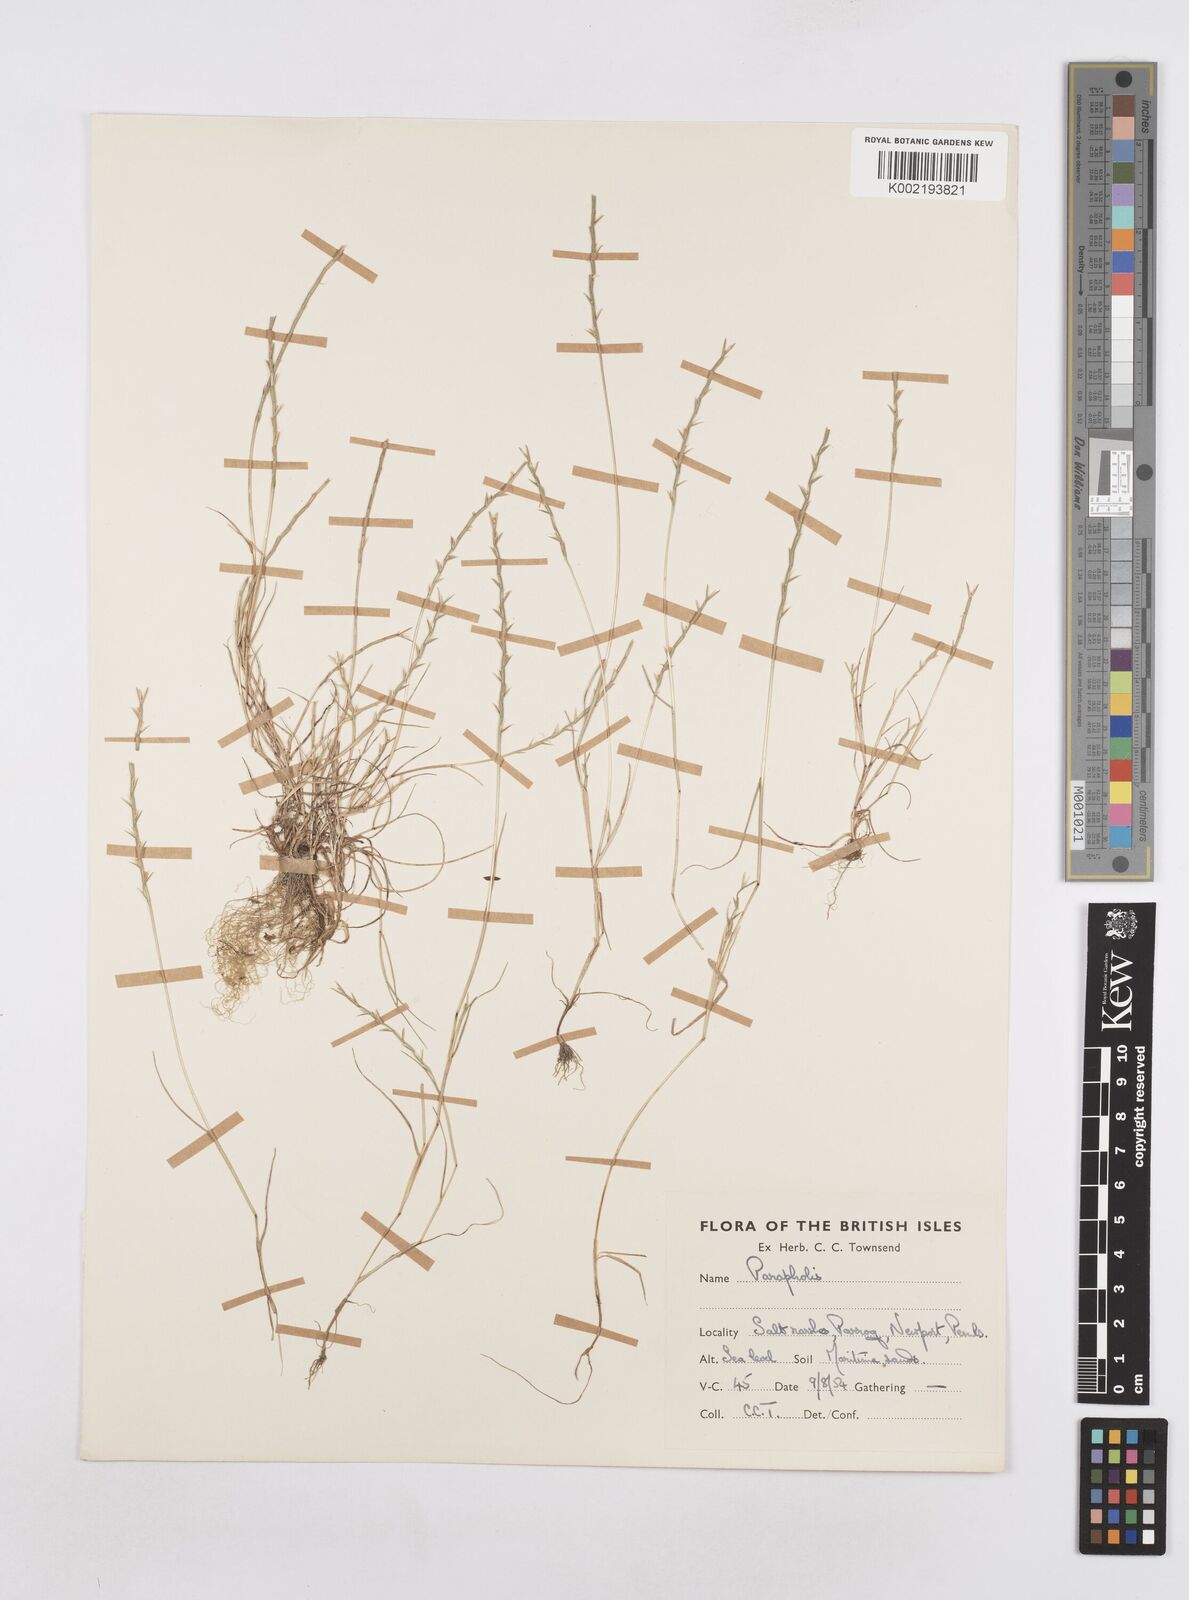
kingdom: Plantae
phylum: Tracheophyta
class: Liliopsida
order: Poales
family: Poaceae
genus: Parapholis
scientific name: Parapholis strigosa
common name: Hard-grass
